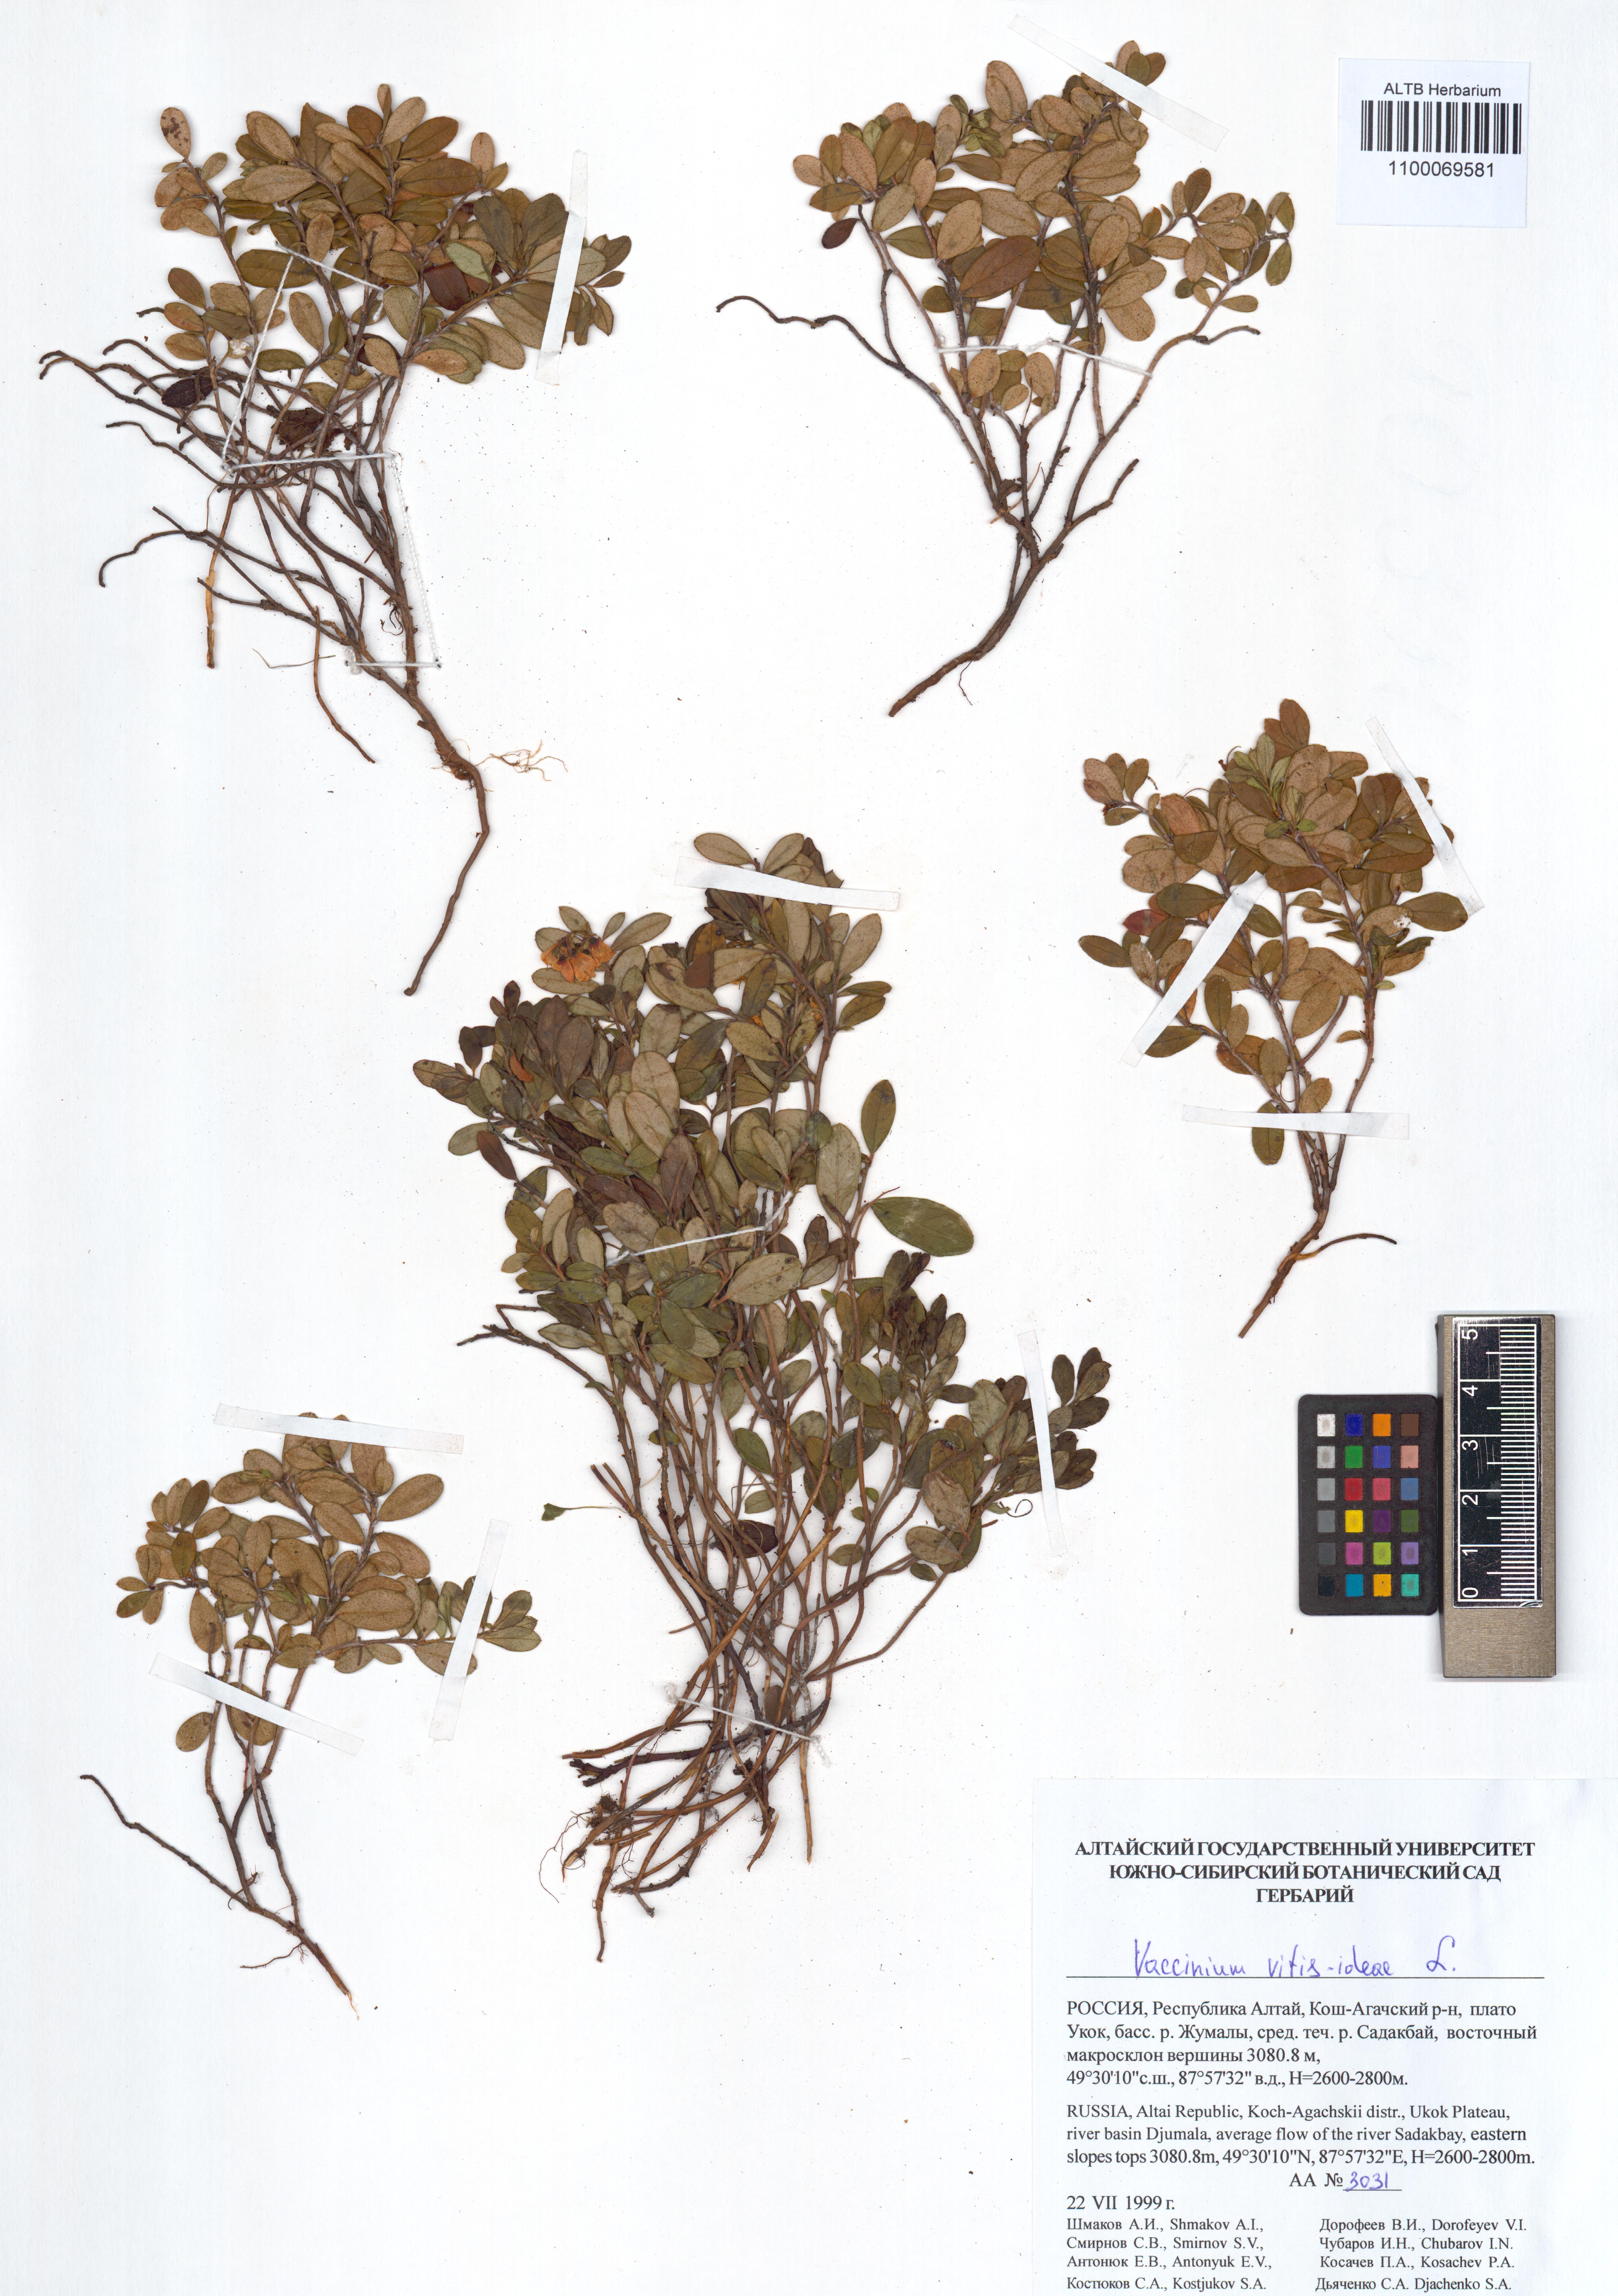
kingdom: Plantae
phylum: Tracheophyta
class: Magnoliopsida
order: Ericales
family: Ericaceae
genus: Vaccinium
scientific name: Vaccinium vitis-idaea
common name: Cowberry
